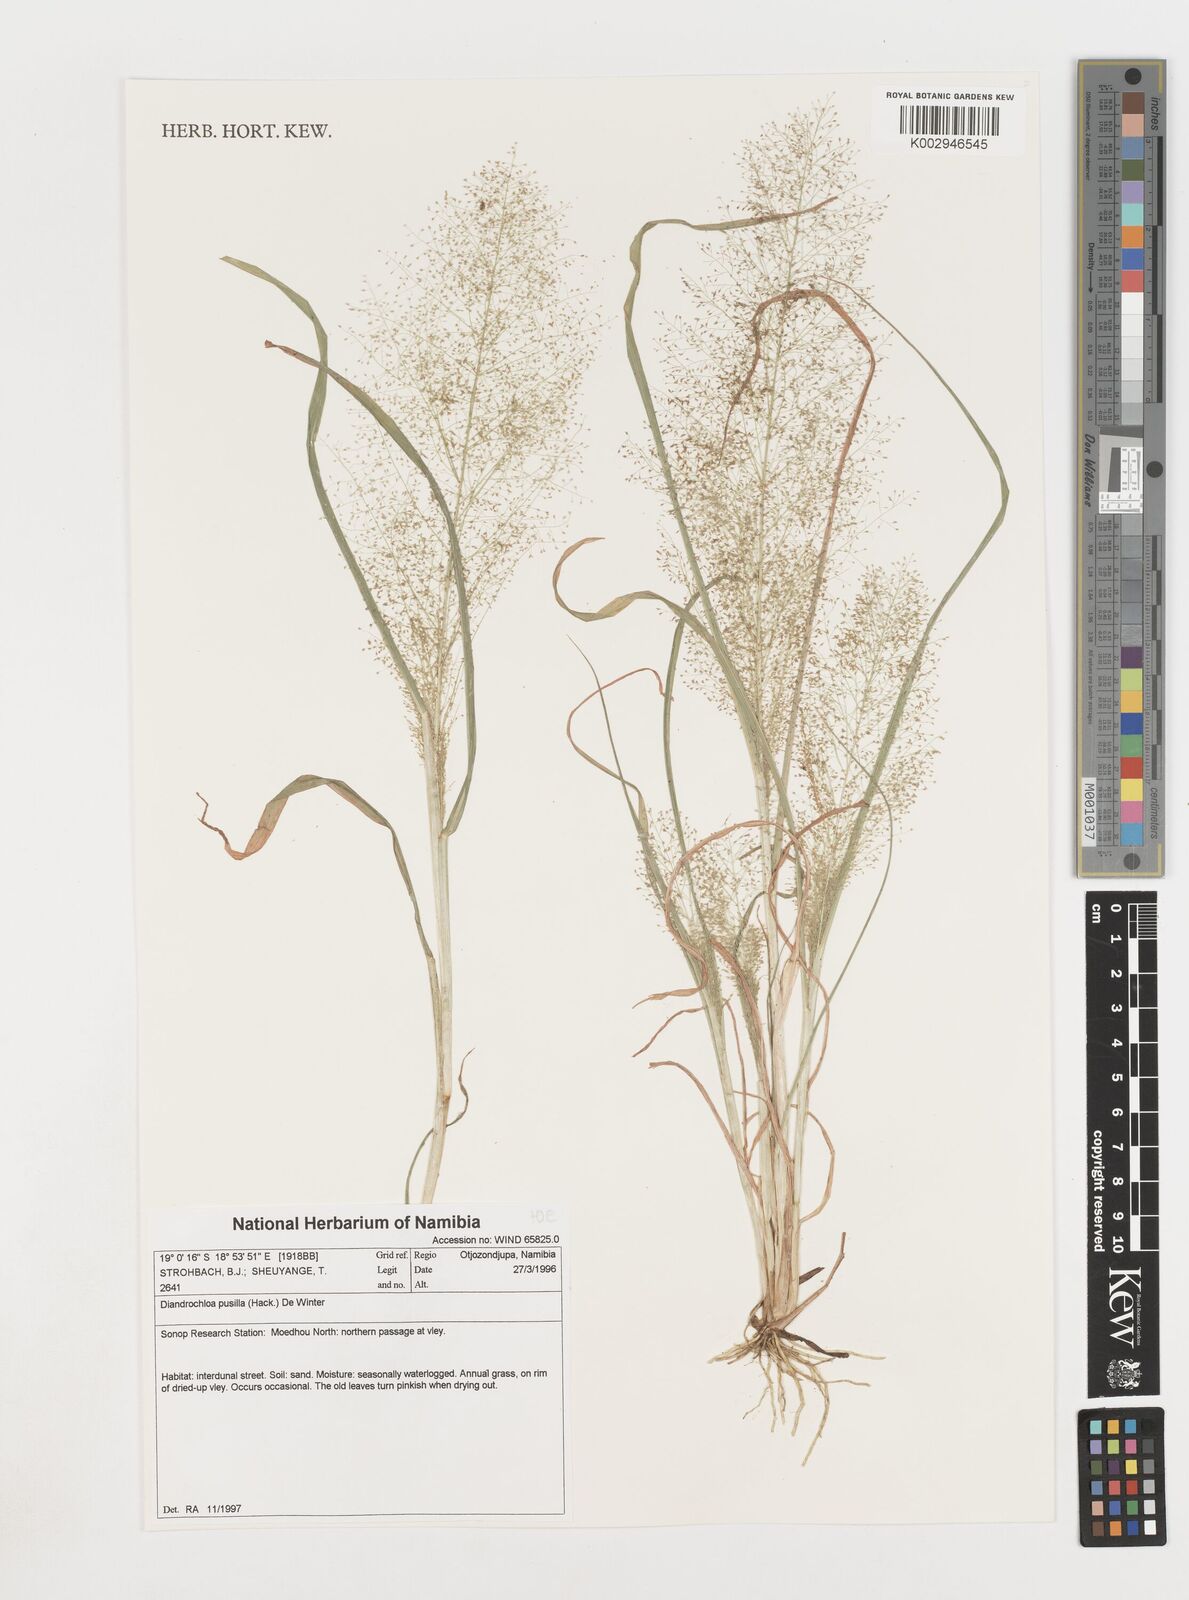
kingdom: Plantae
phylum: Tracheophyta
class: Liliopsida
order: Poales
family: Poaceae
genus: Eragrostis
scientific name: Eragrostis pusilla
